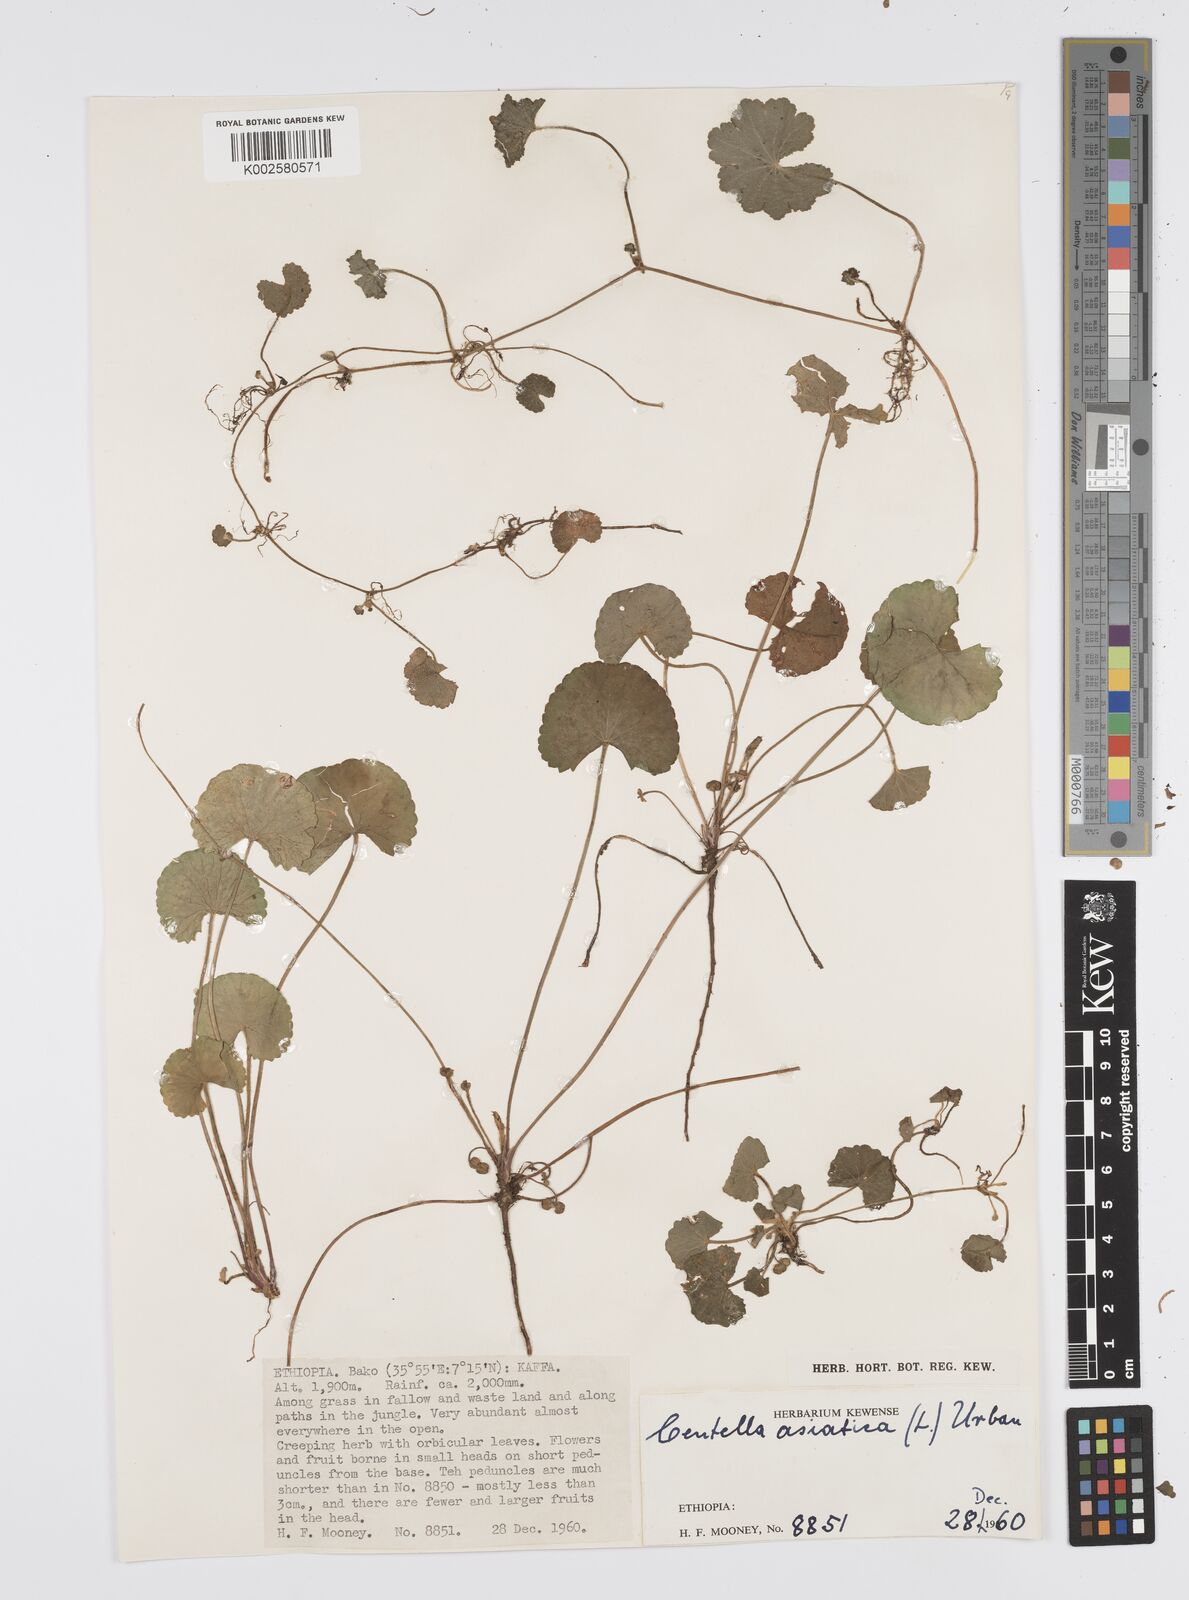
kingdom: Plantae
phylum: Tracheophyta
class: Magnoliopsida
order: Apiales
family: Apiaceae
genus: Centella
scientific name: Centella asiatica
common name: Spadeleaf
